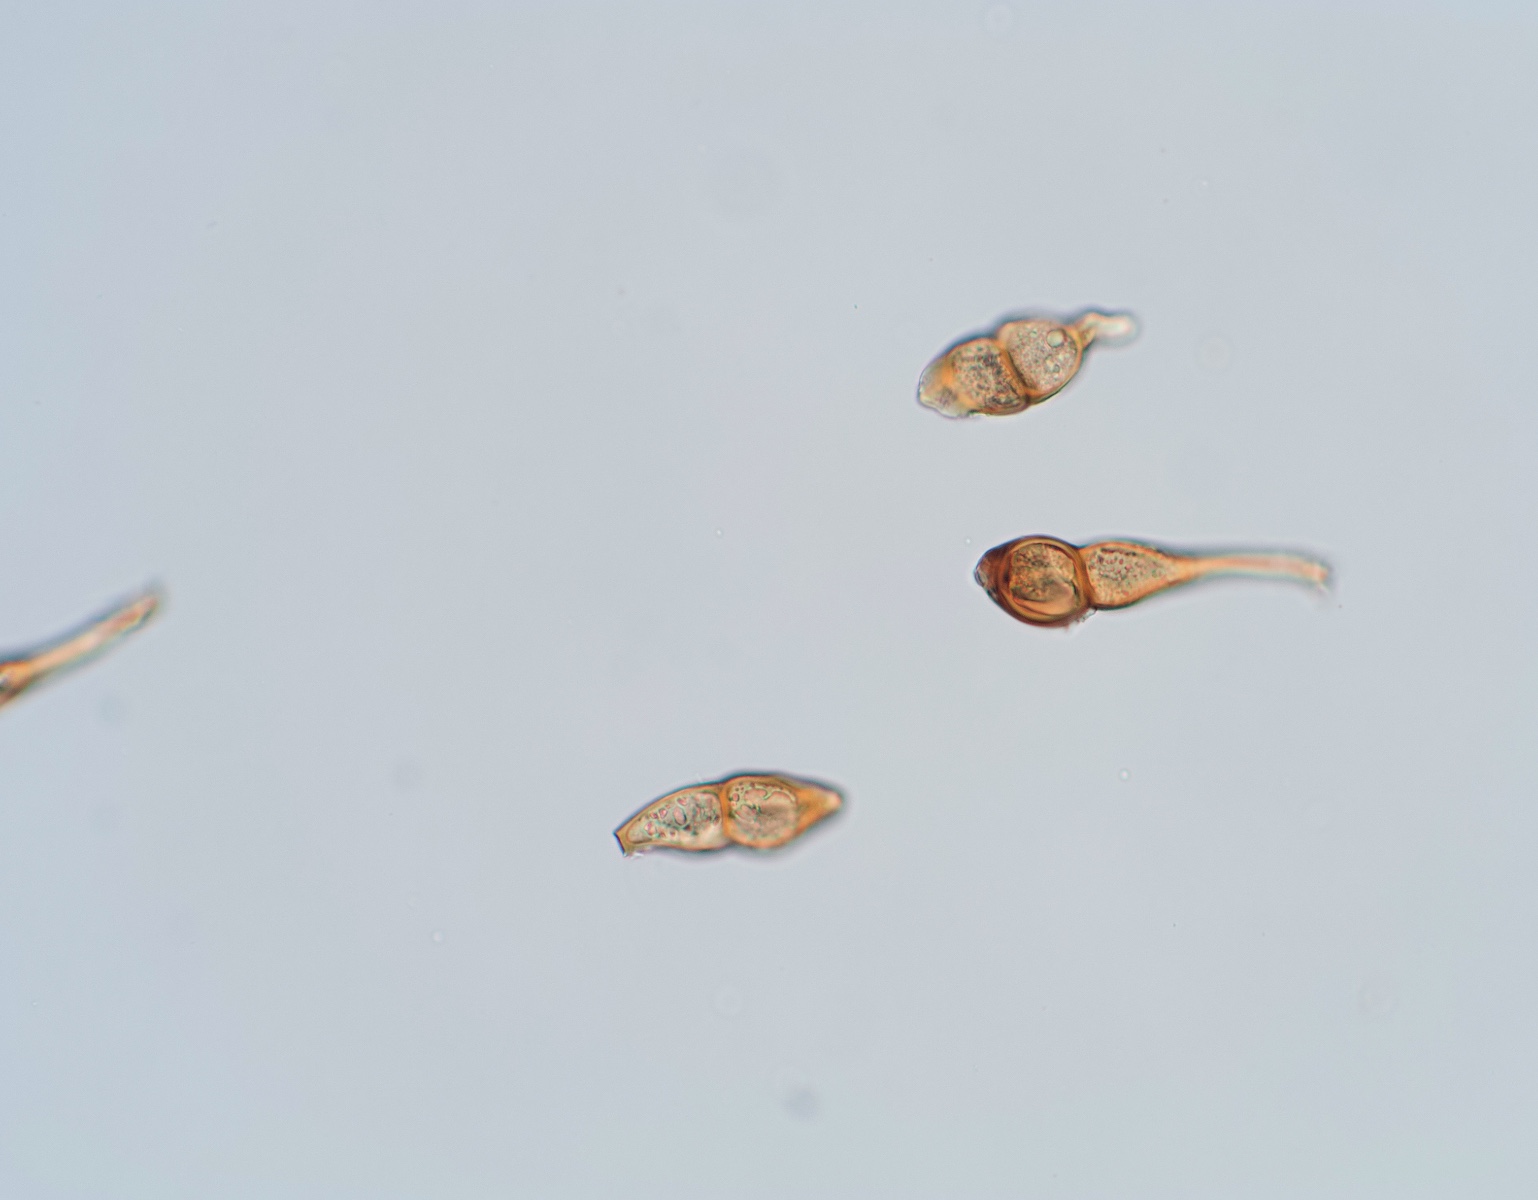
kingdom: Fungi
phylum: Basidiomycota
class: Pucciniomycetes
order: Pucciniales
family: Pucciniaceae
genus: Puccinia
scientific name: Puccinia caricina
